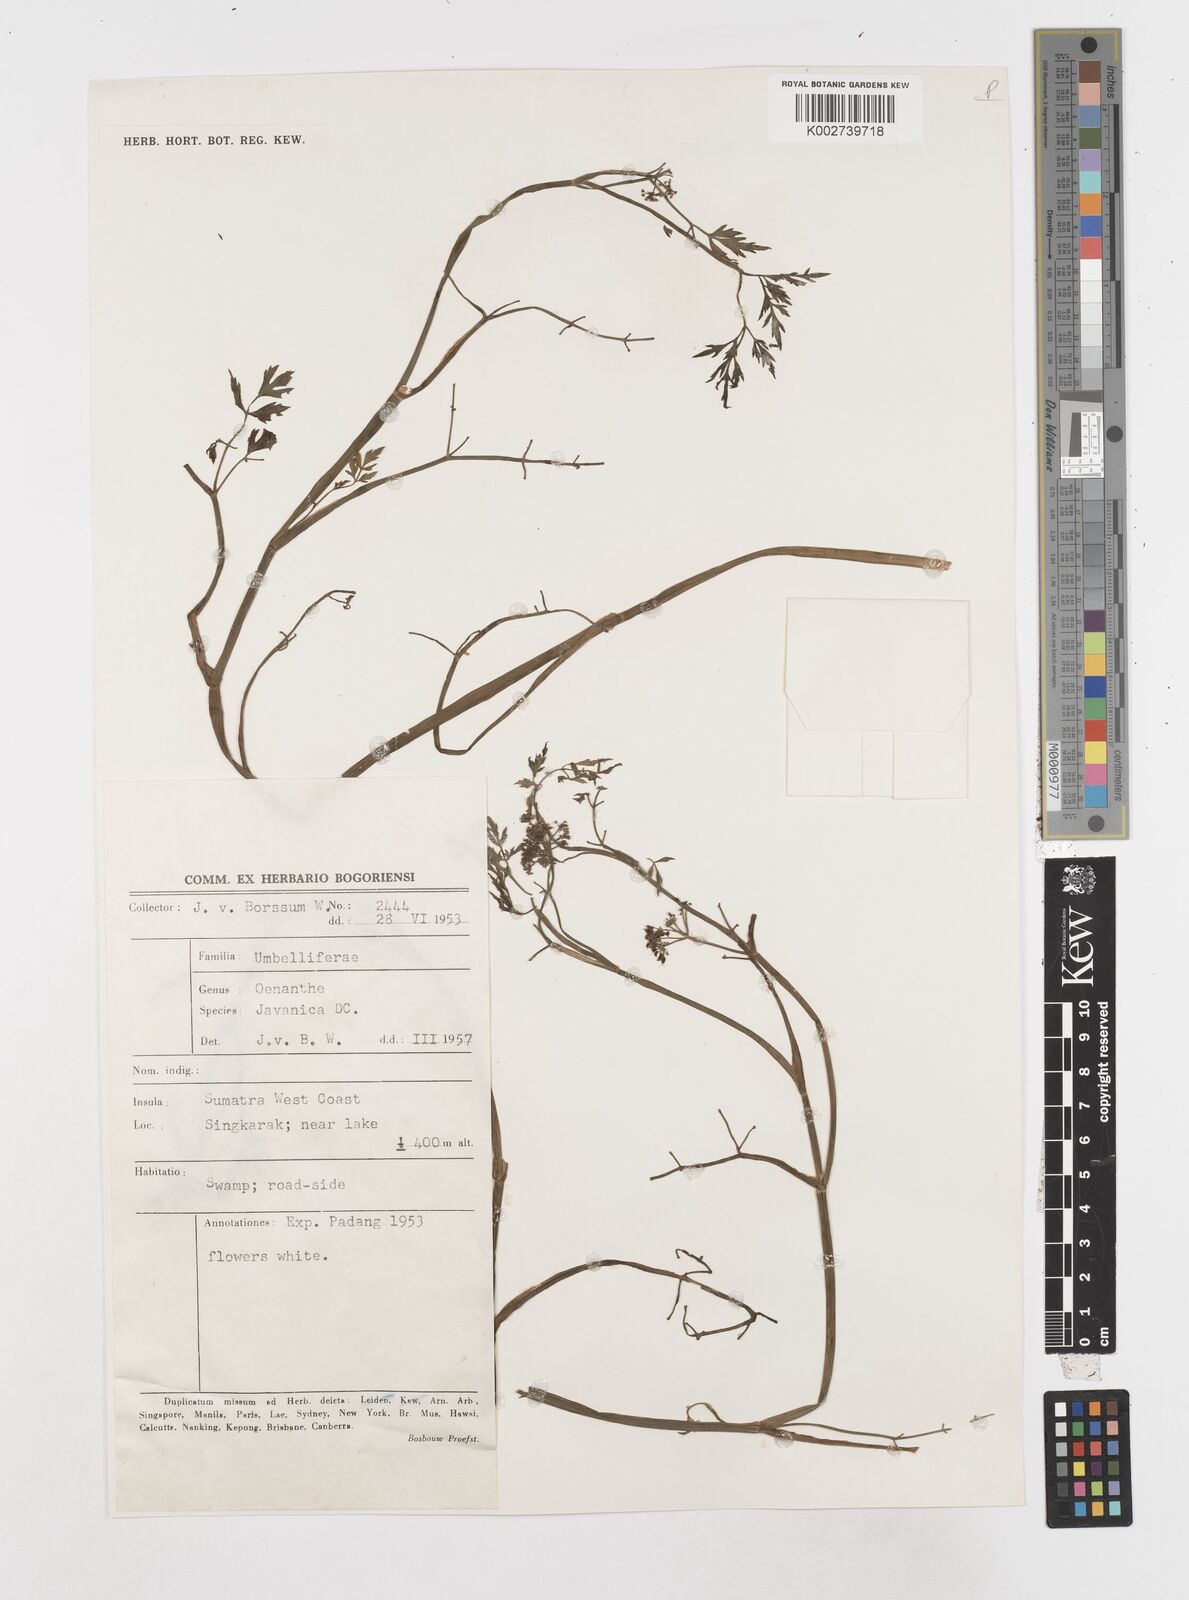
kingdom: Plantae
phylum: Tracheophyta
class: Magnoliopsida
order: Apiales
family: Apiaceae
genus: Oenanthe
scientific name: Oenanthe javanica
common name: Java water-dropwort
